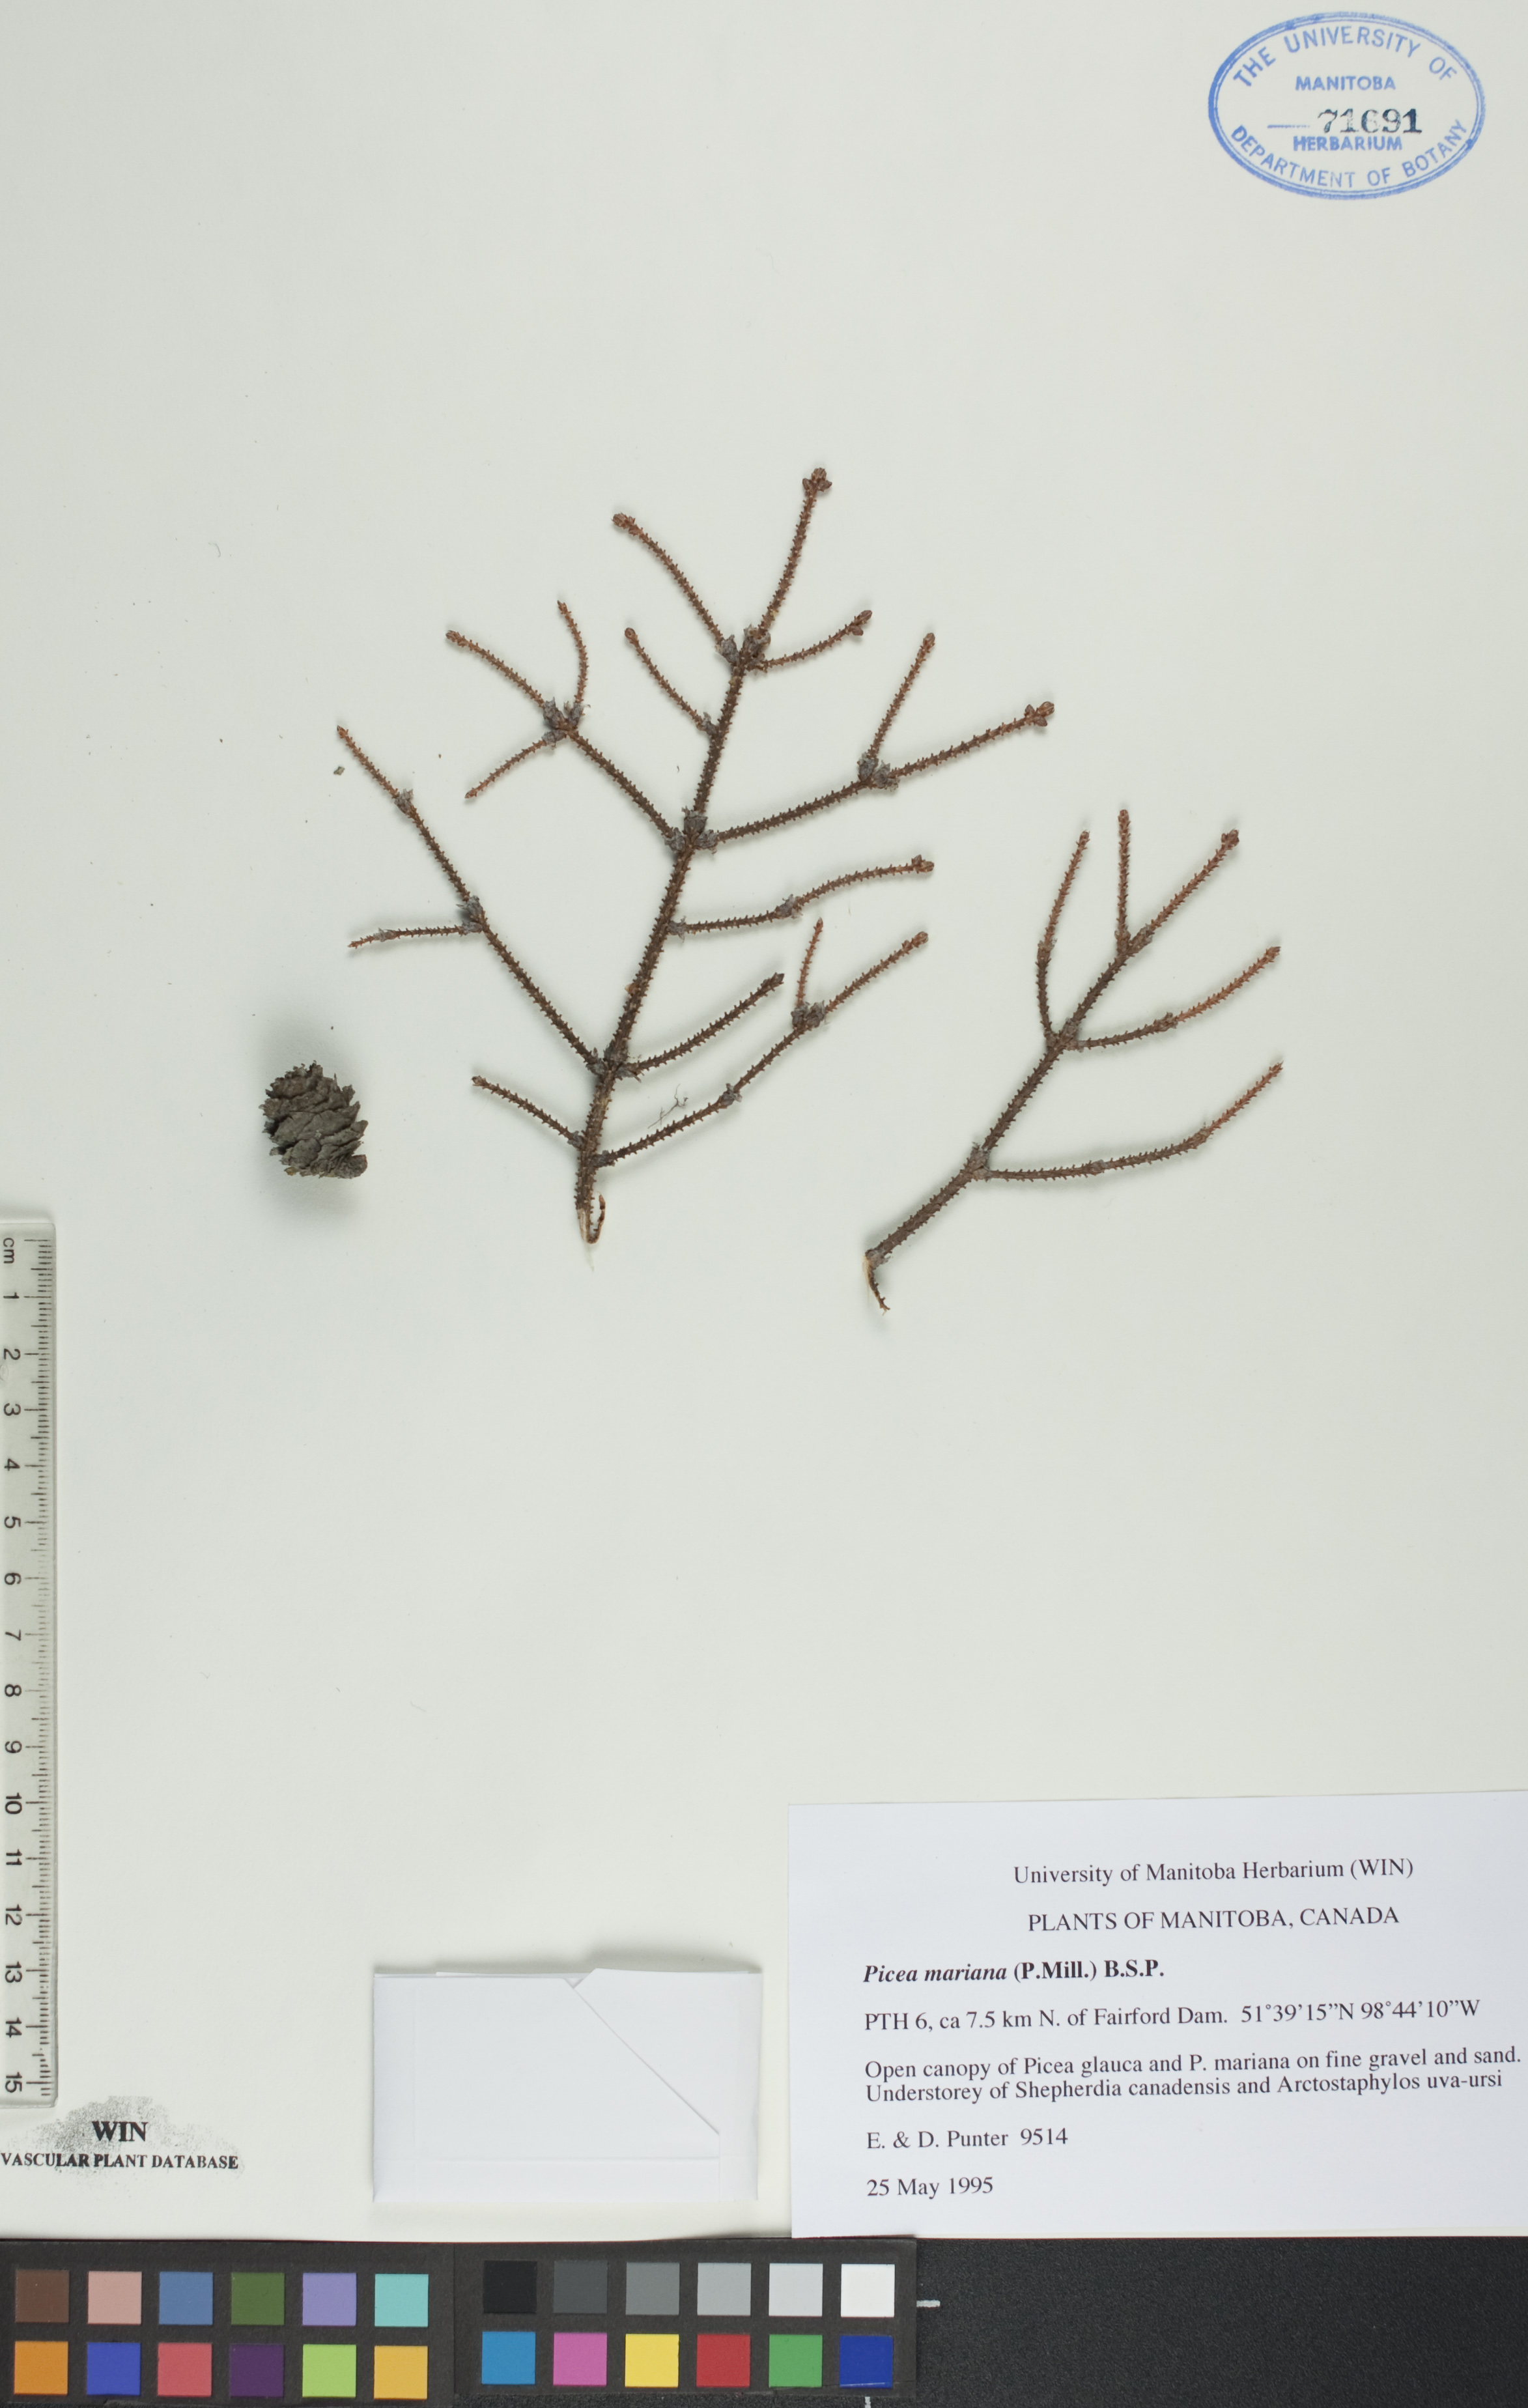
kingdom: Plantae
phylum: Tracheophyta
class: Pinopsida
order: Pinales
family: Pinaceae
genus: Picea
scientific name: Picea mariana
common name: Black spruce
